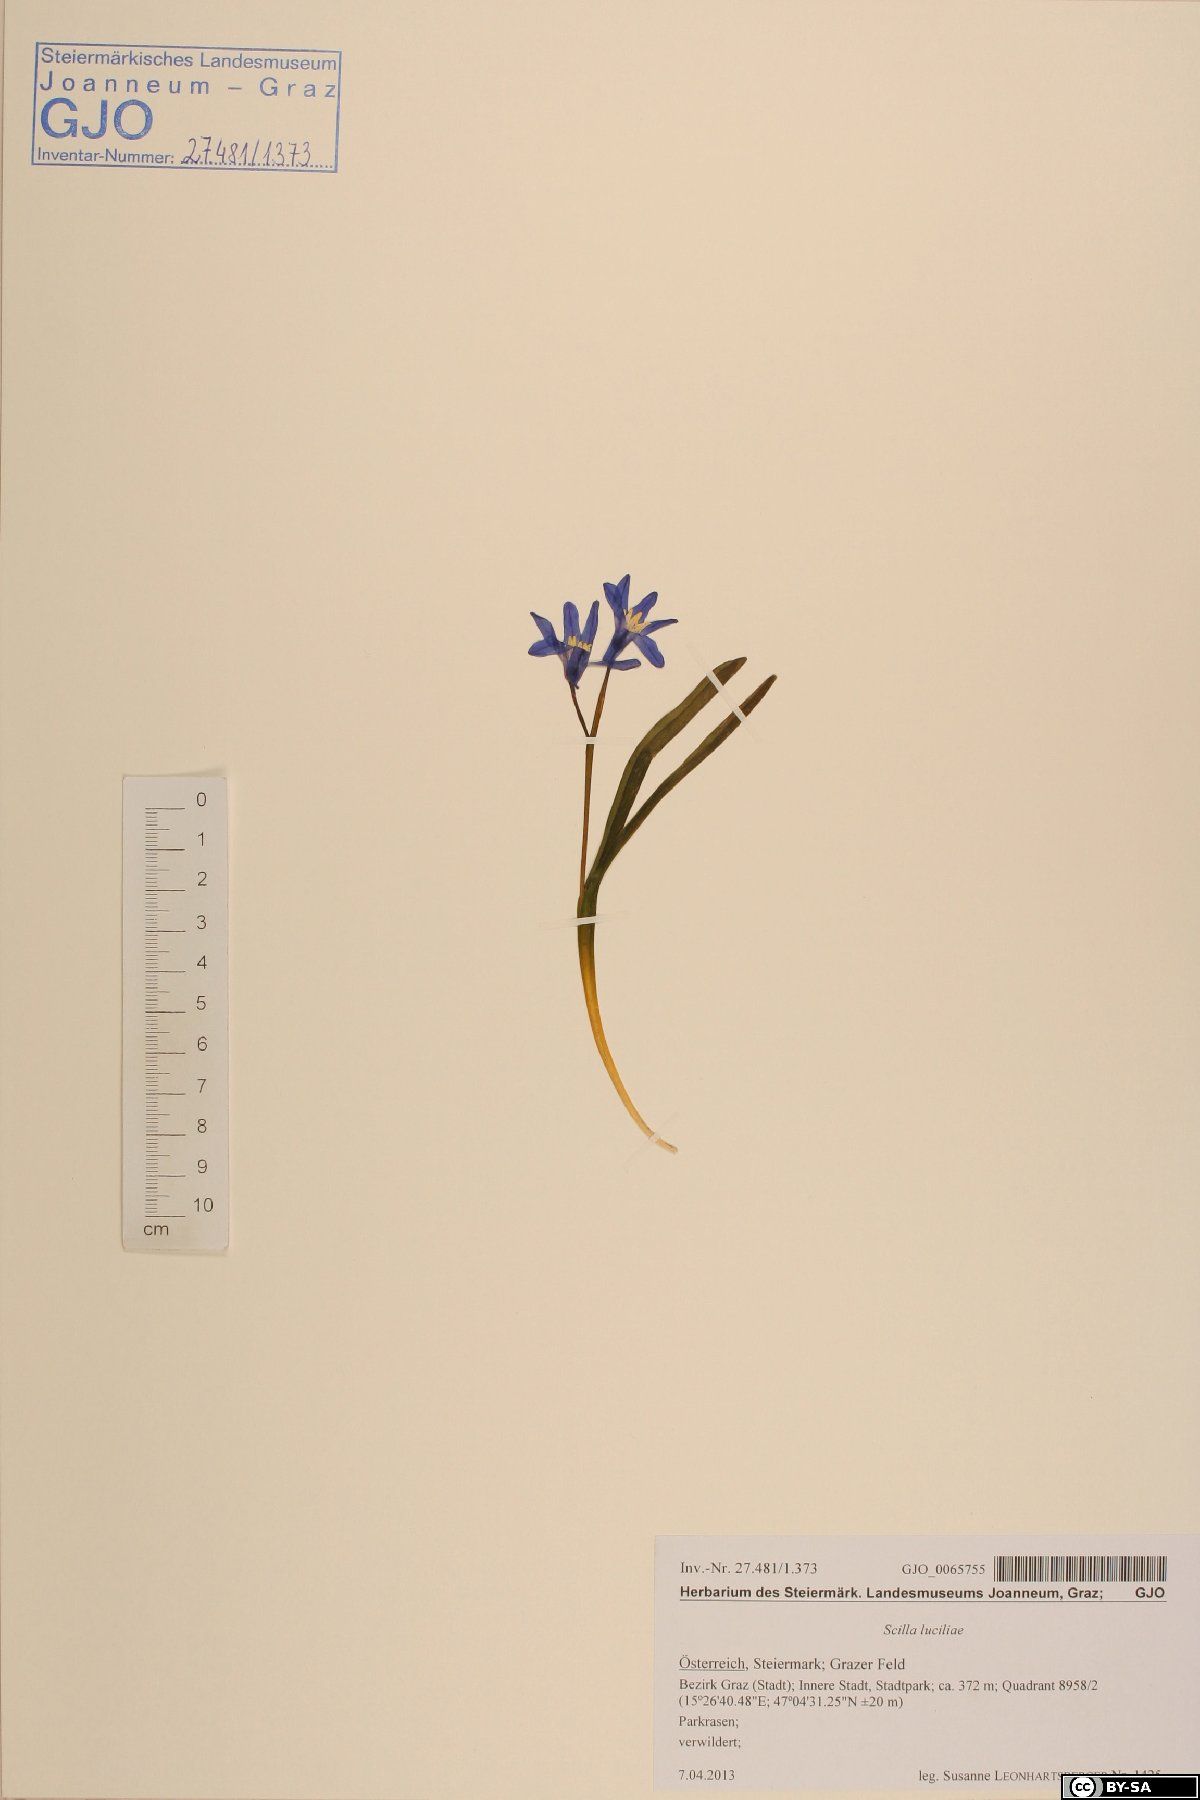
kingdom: Plantae
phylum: Tracheophyta
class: Liliopsida
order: Asparagales
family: Asparagaceae
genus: Scilla
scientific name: Scilla forbesii
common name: Glory-of-the-snow
